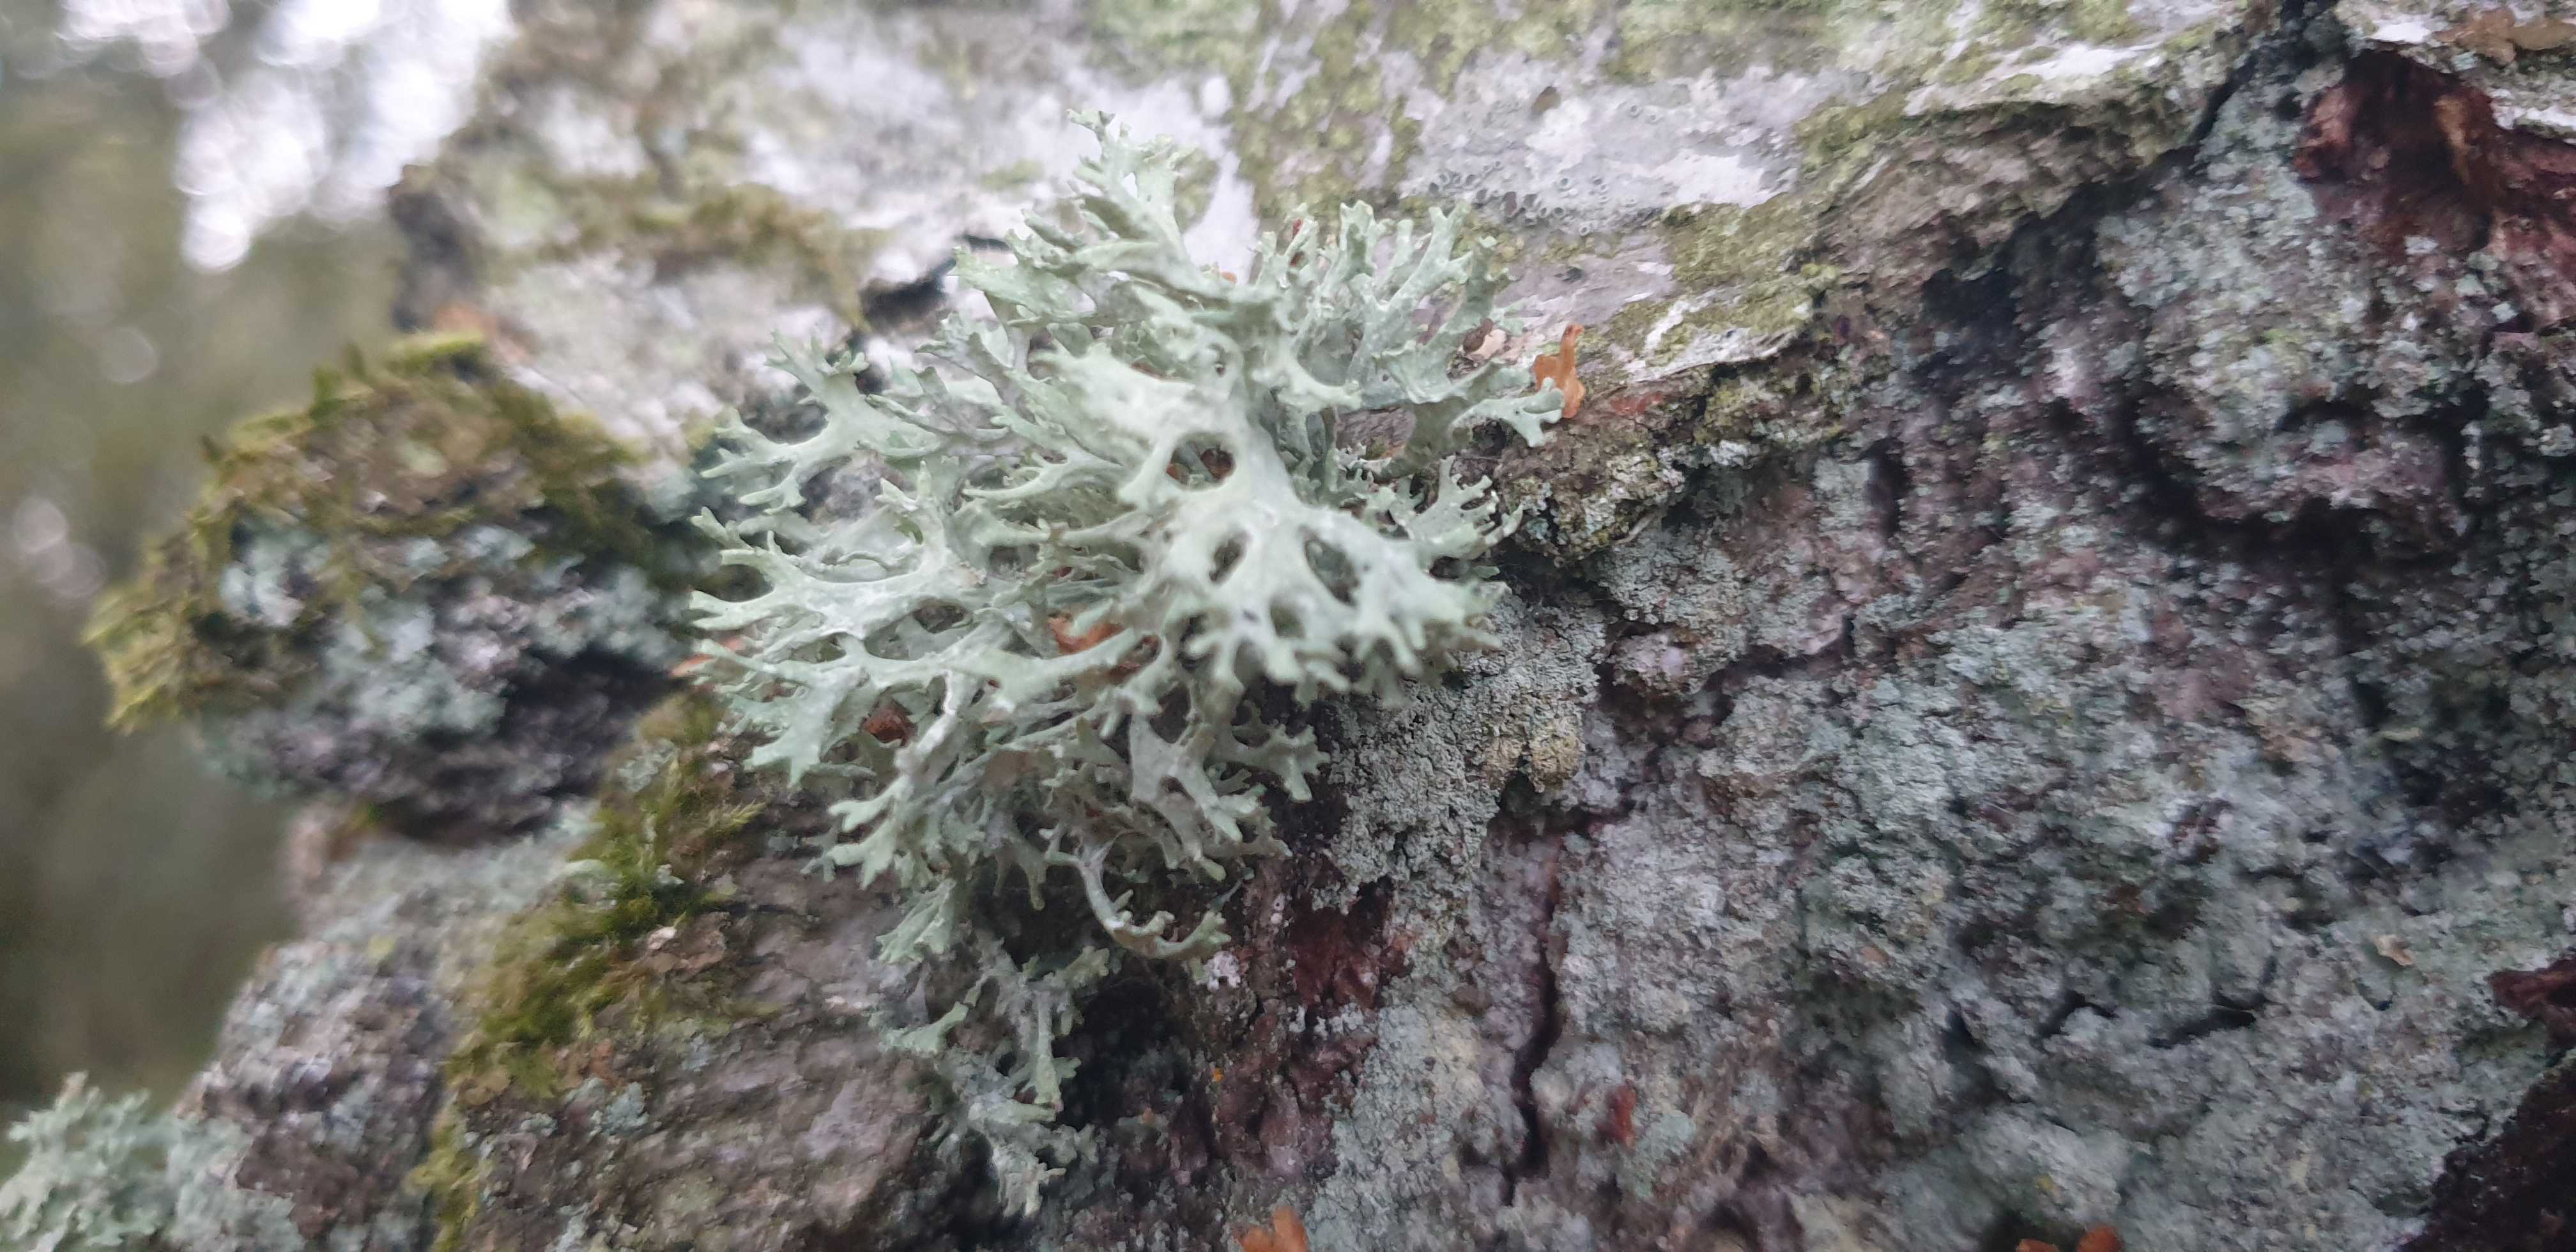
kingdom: Fungi
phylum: Ascomycota
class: Lecanoromycetes
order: Lecanorales
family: Parmeliaceae
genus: Evernia
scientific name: Evernia prunastri
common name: almindelig slåenlav
